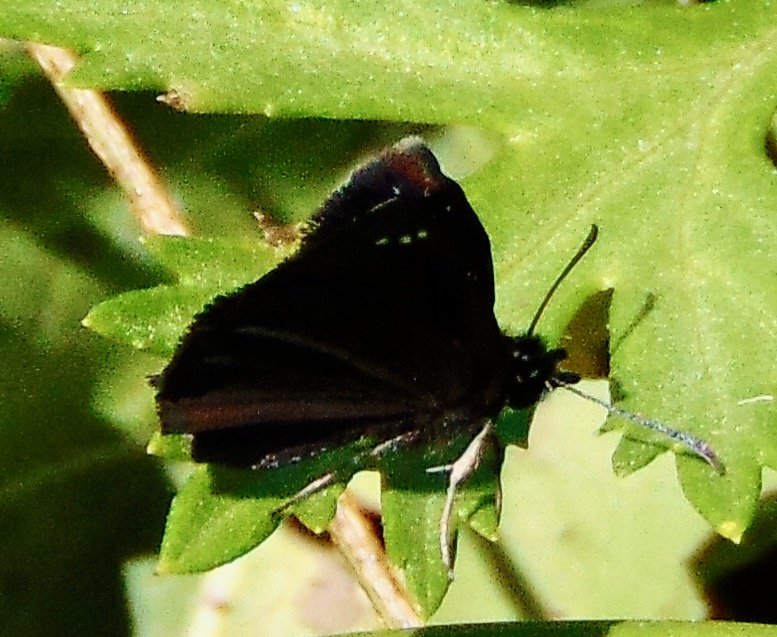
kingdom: Animalia
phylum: Arthropoda
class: Insecta
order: Lepidoptera
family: Hesperiidae
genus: Pholisora
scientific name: Pholisora catullus
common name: Common Sootywing
